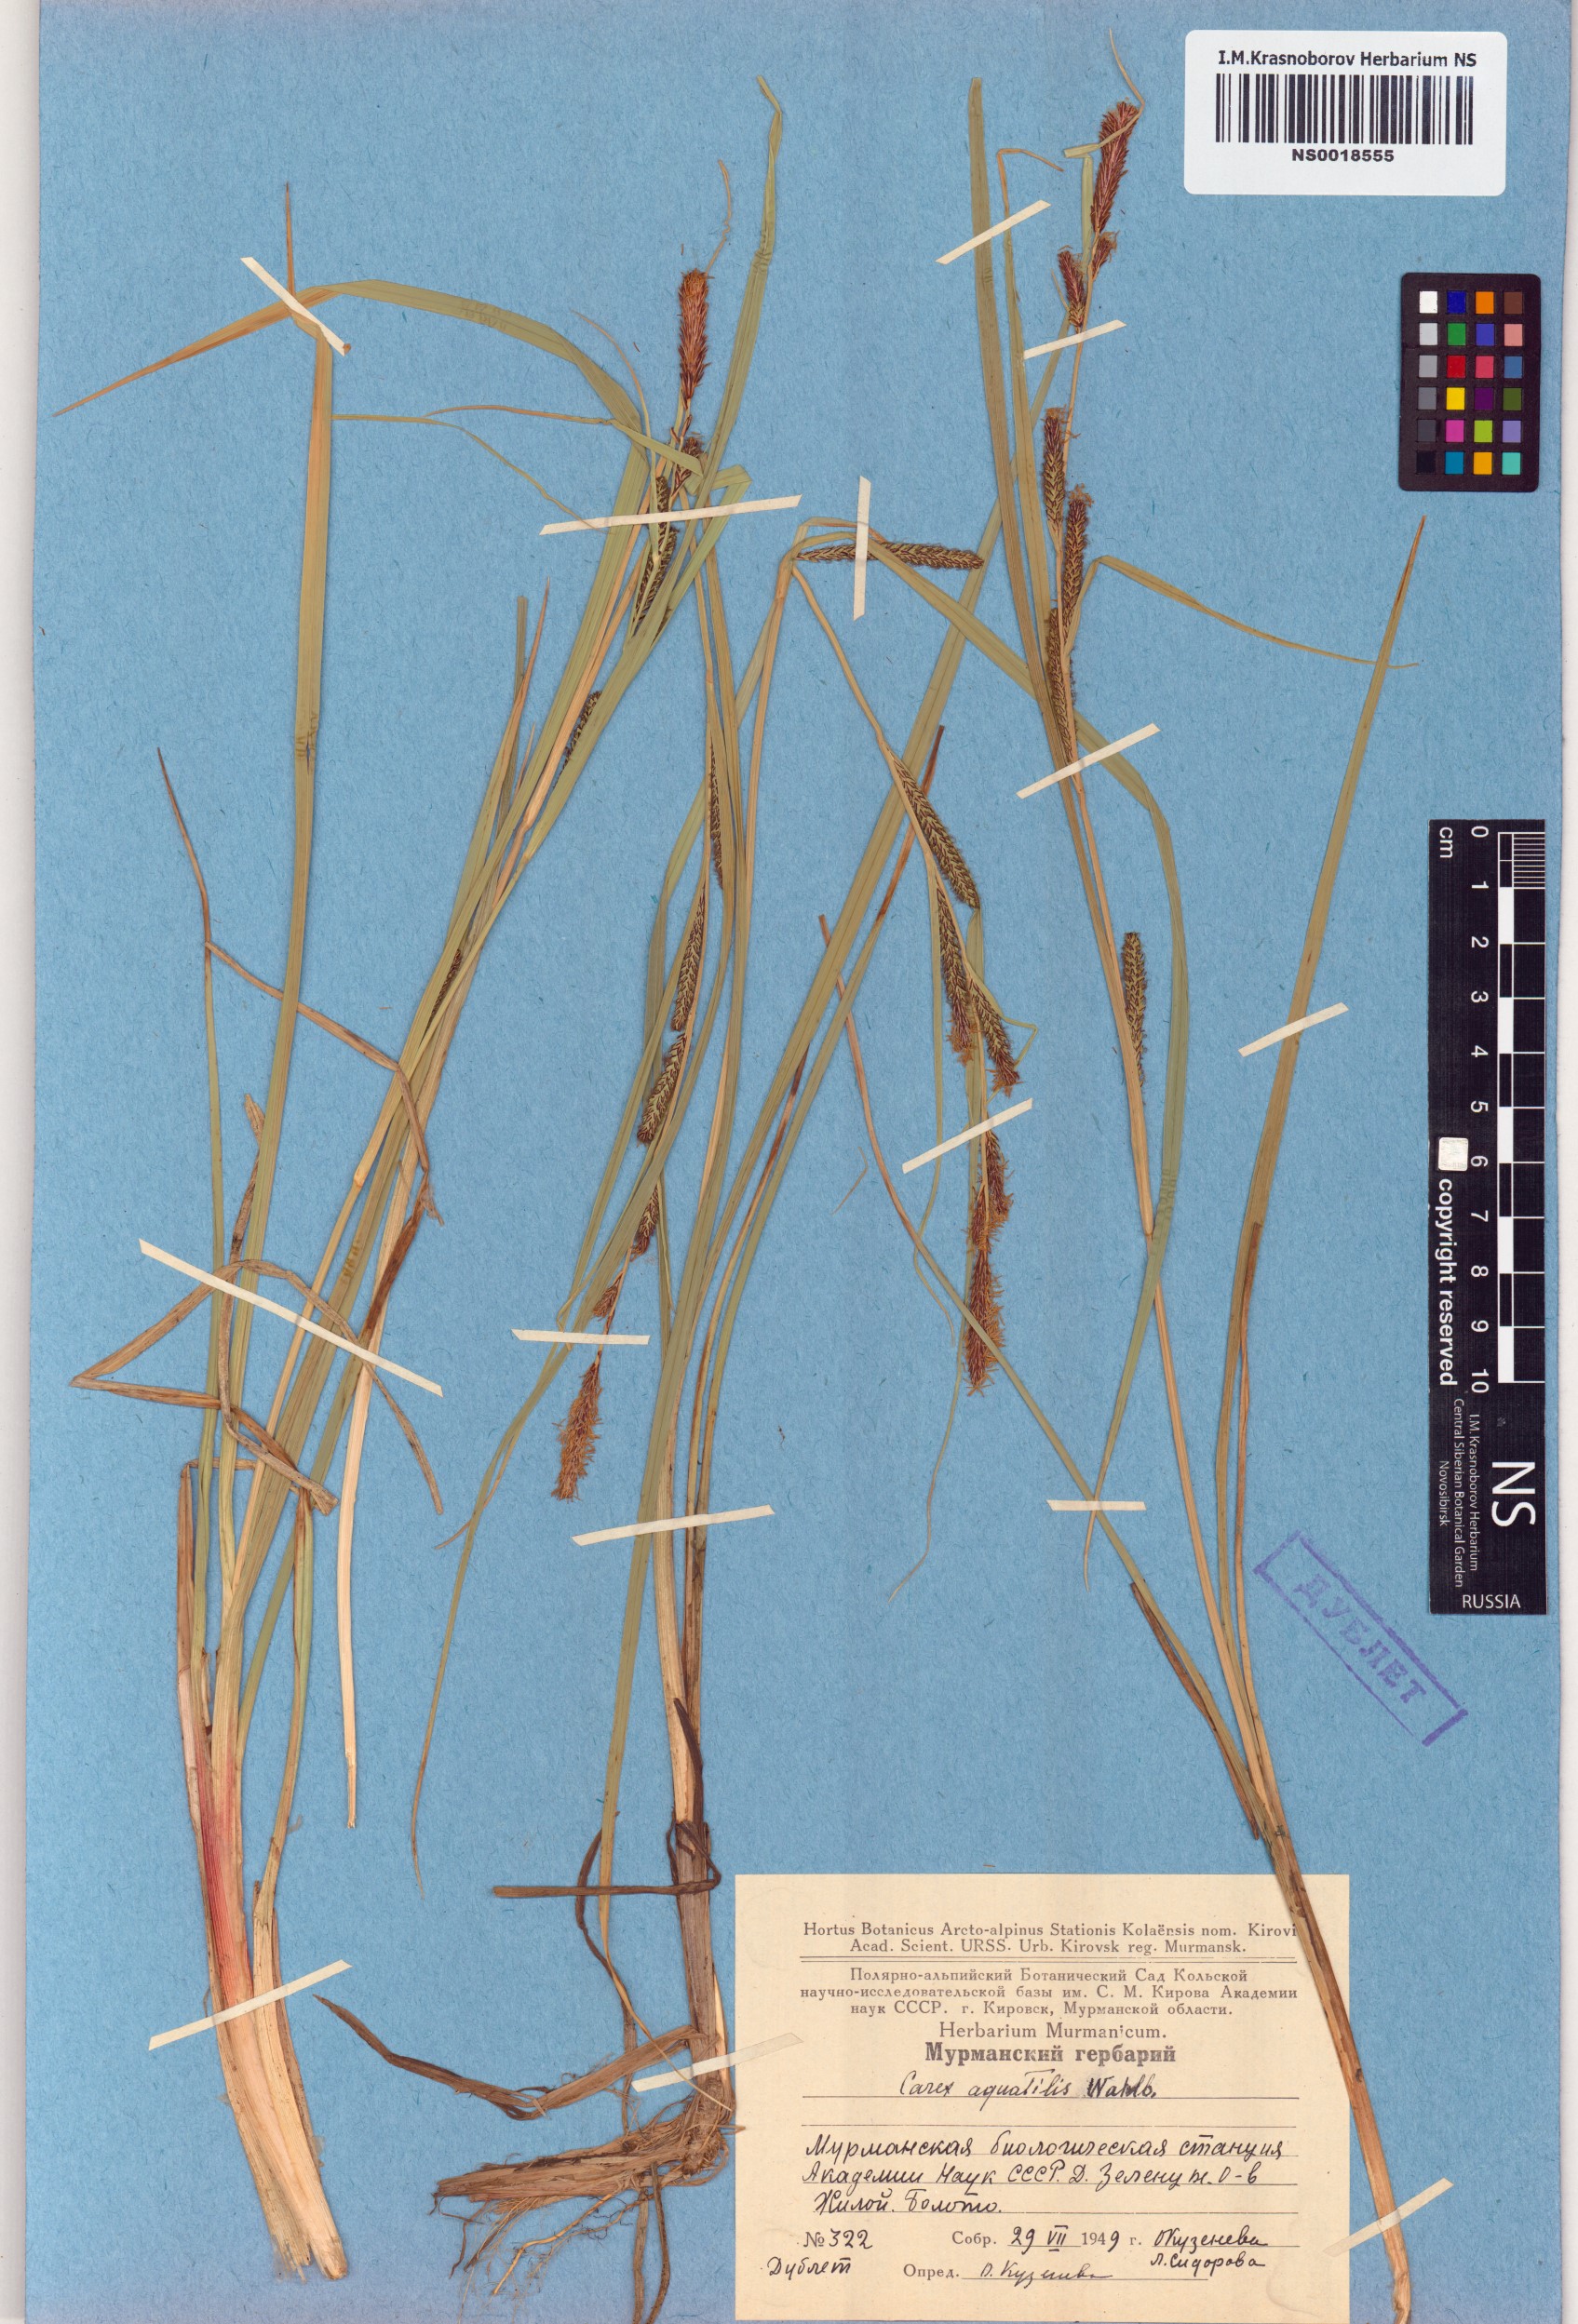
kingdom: Plantae
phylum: Tracheophyta
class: Liliopsida
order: Poales
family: Cyperaceae
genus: Carex
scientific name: Carex aquatilis
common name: Water sedge
